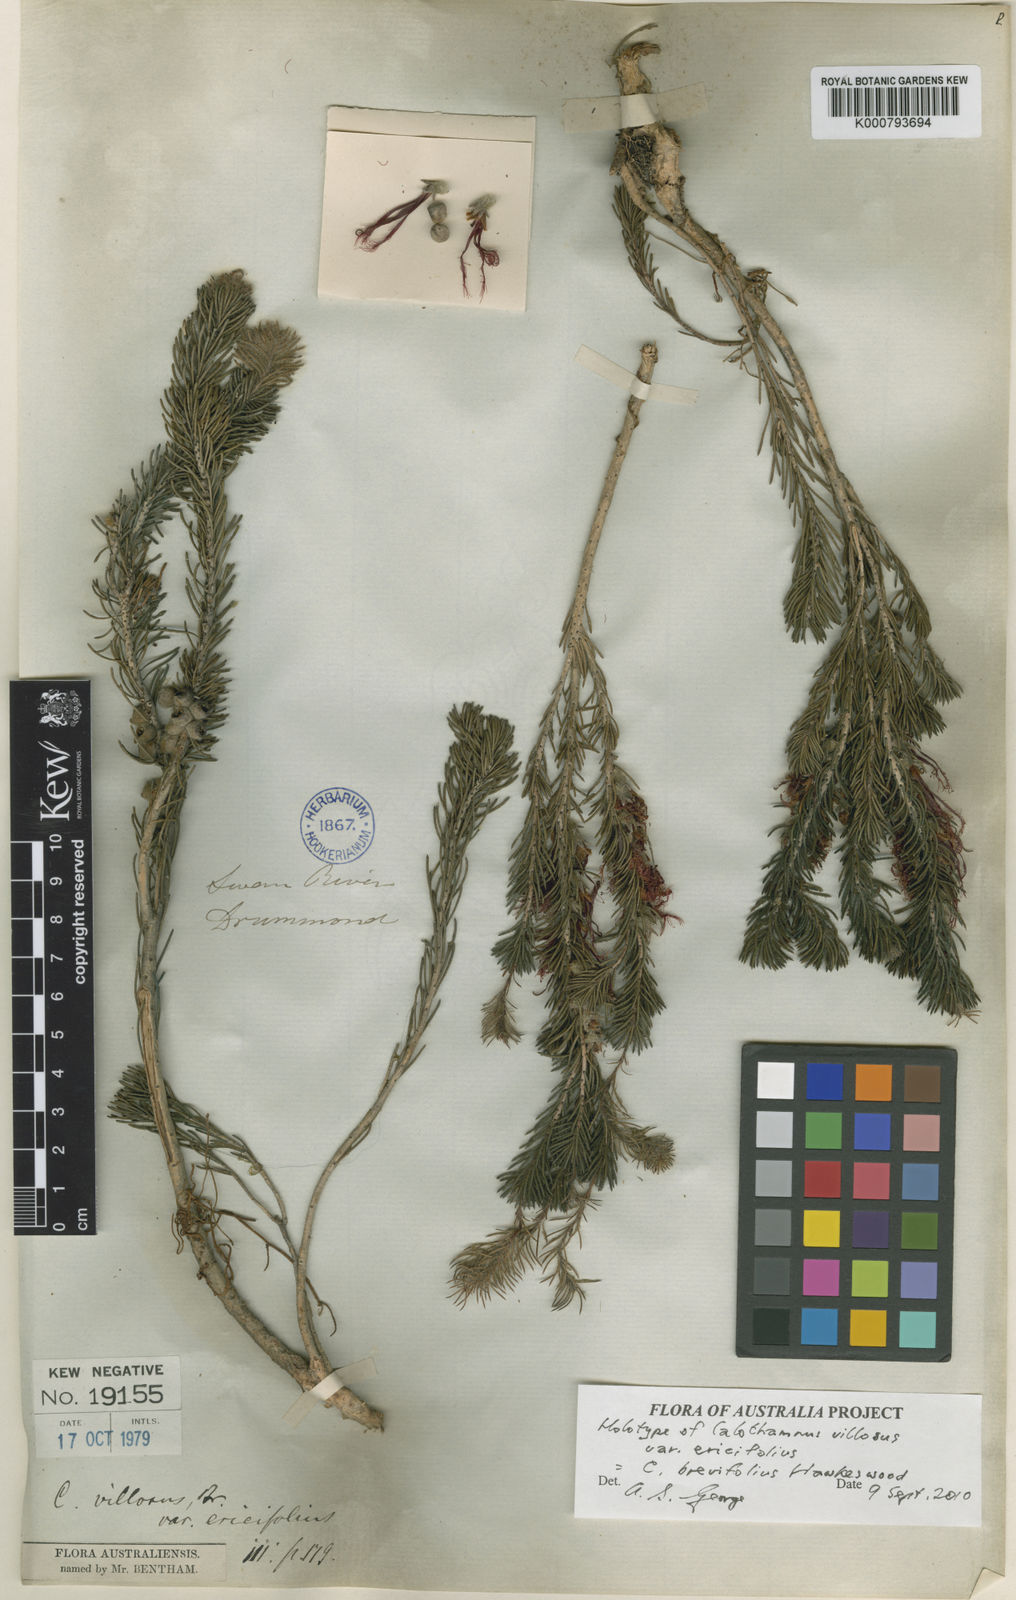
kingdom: Plantae
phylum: Tracheophyta
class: Magnoliopsida
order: Myrtales
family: Myrtaceae
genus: Melaleuca
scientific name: Melaleuca hawkeswoodii
